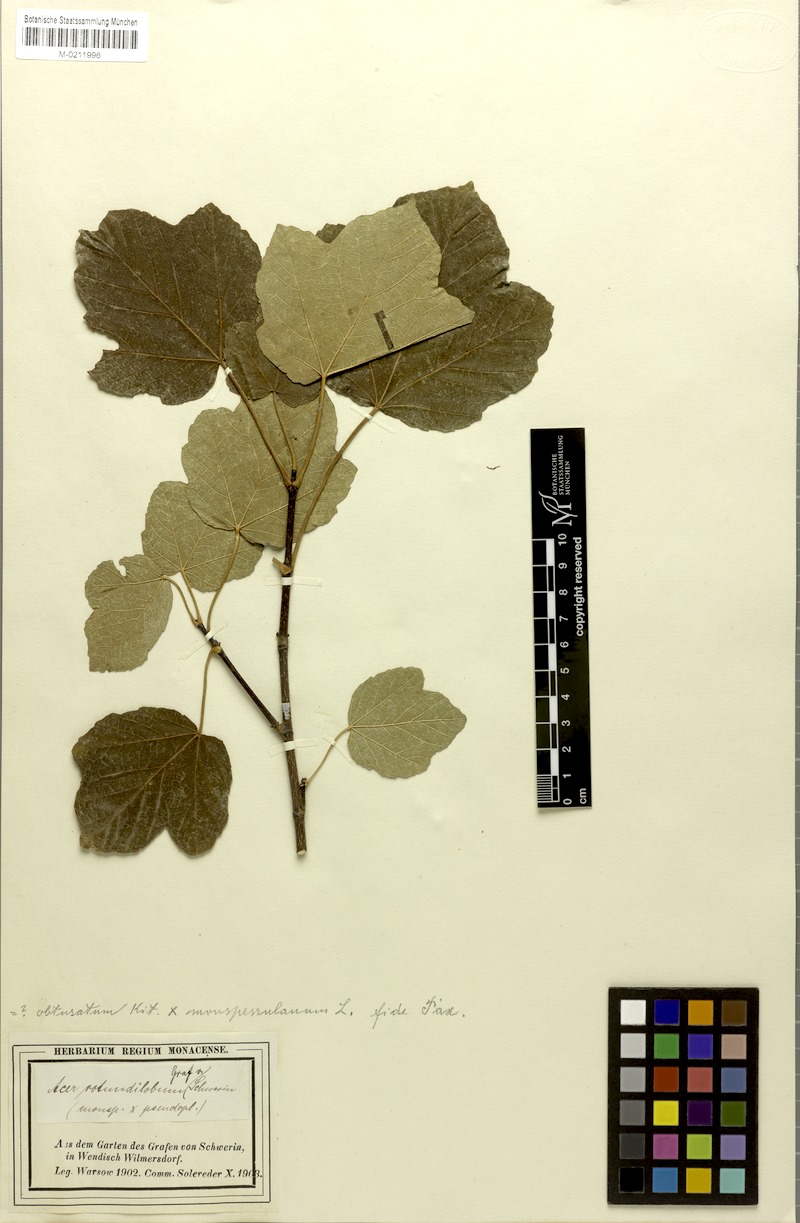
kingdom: Plantae
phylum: Tracheophyta
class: Magnoliopsida
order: Sapindales
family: Sapindaceae
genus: Acer
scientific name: Acer rotundilobum
